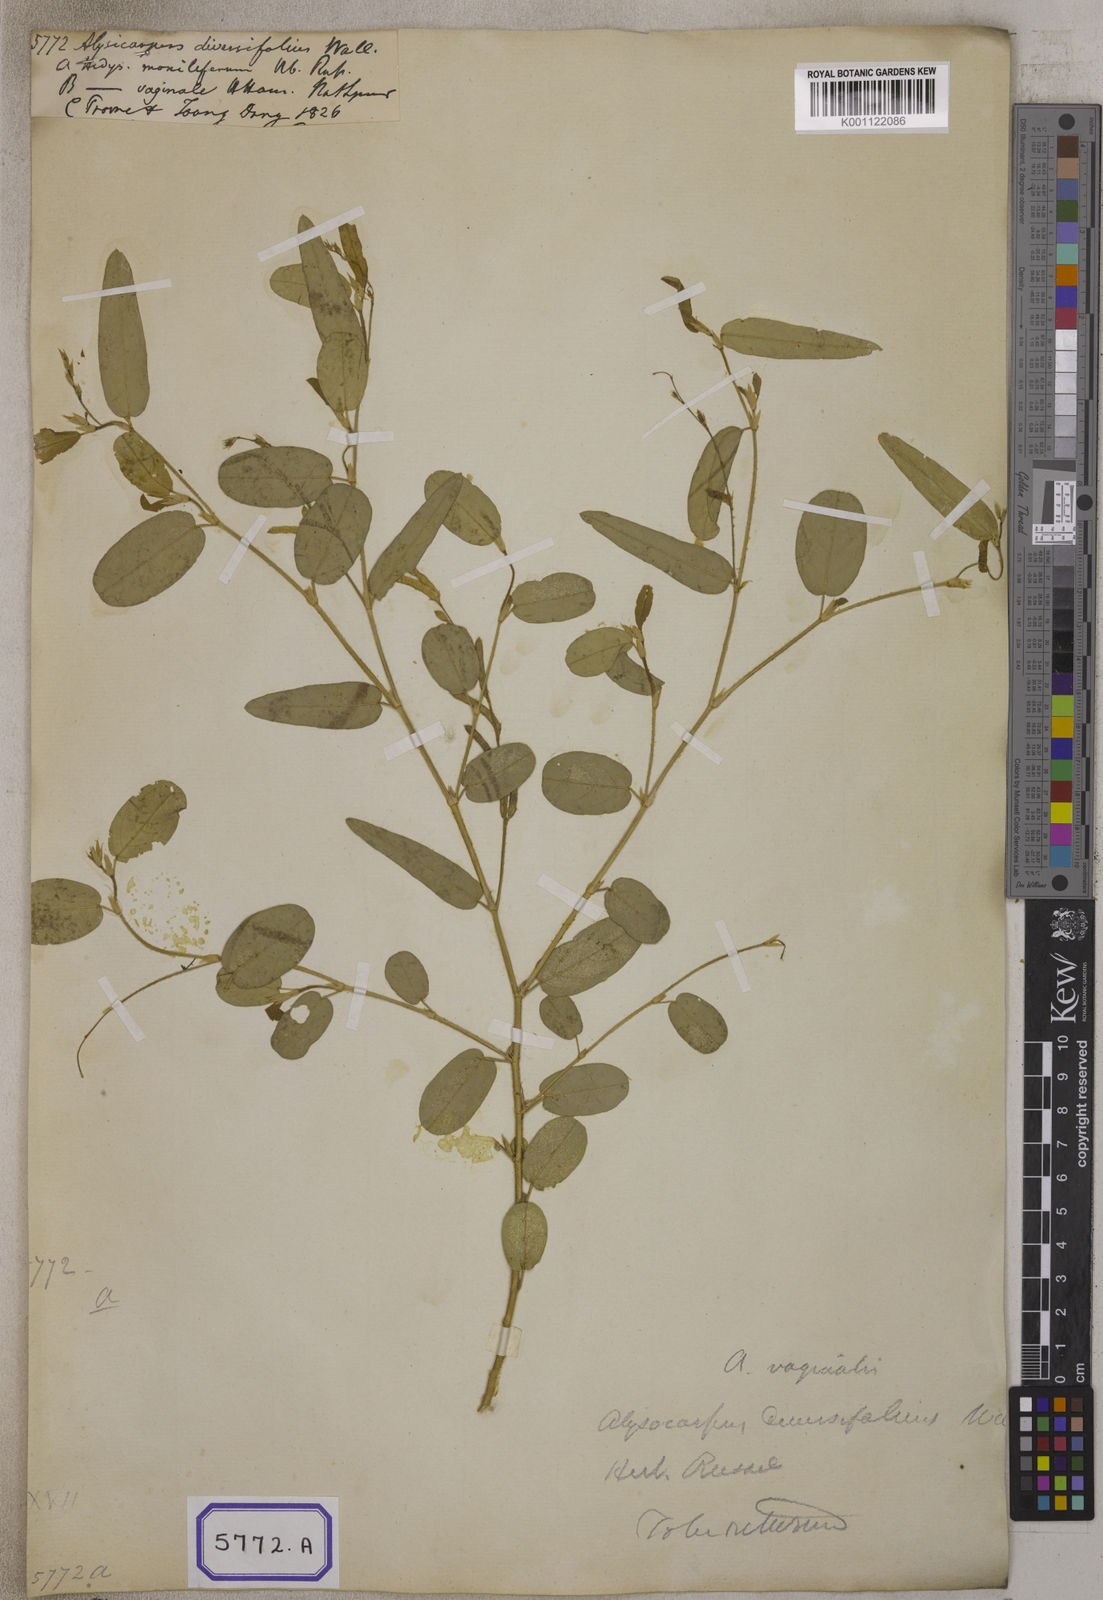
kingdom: Plantae
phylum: Tracheophyta
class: Magnoliopsida
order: Fabales
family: Fabaceae
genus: Alysicarpus
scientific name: Alysicarpus vaginalis
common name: White moneywort
